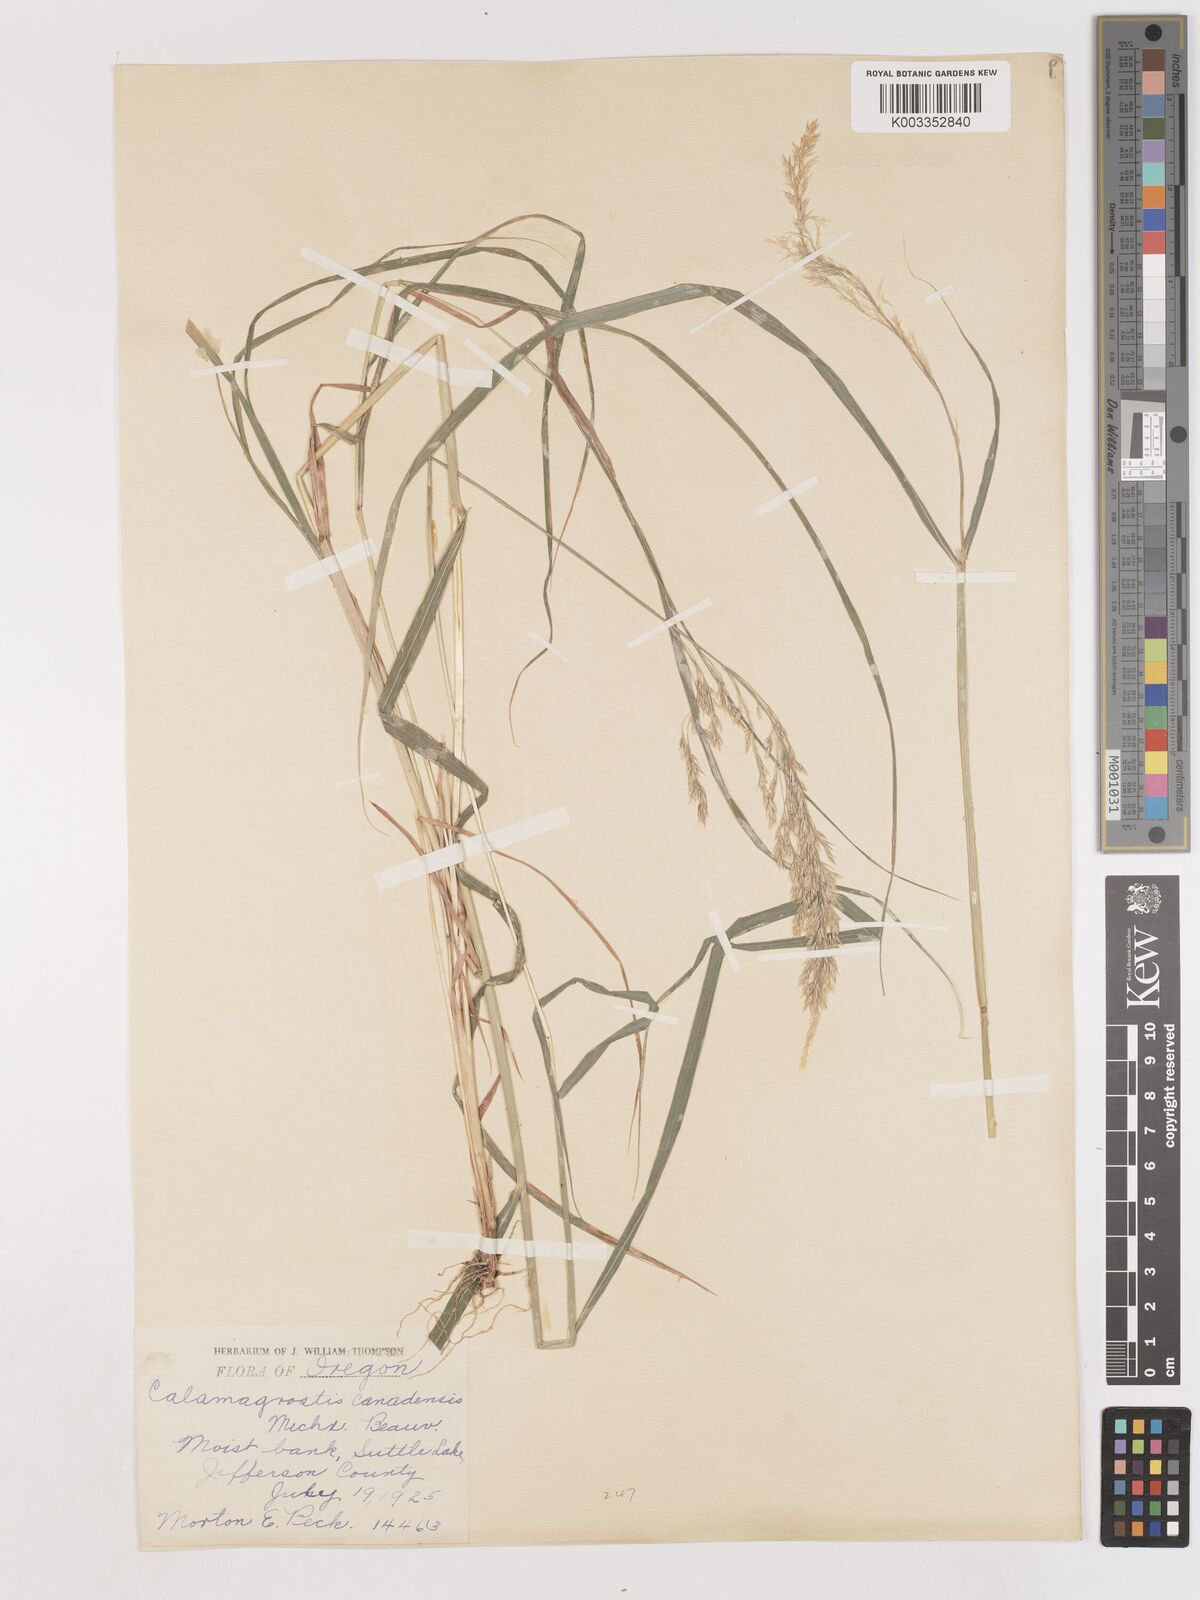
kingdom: Plantae
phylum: Tracheophyta
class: Liliopsida
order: Poales
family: Poaceae
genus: Calamagrostis
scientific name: Calamagrostis canadensis
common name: Canada bluejoint
